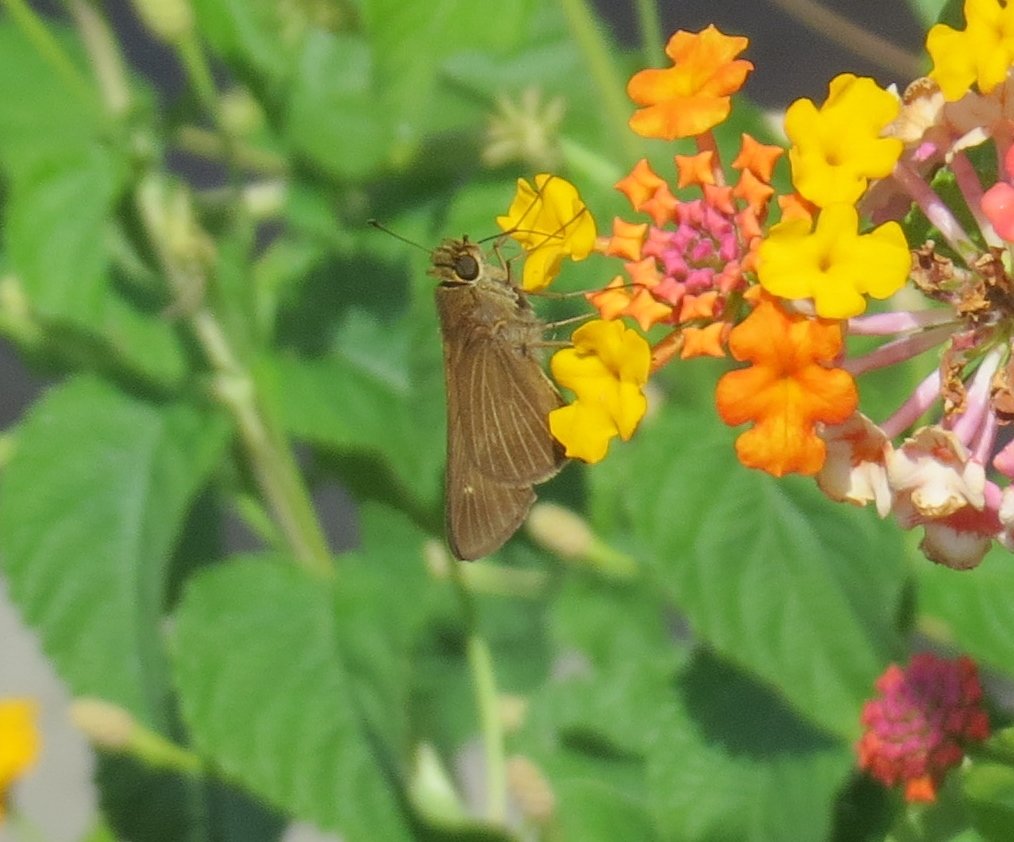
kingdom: Animalia
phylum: Arthropoda
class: Insecta
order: Lepidoptera
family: Hesperiidae
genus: Panoquina
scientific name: Panoquina ocola
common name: Ocola Skipper
